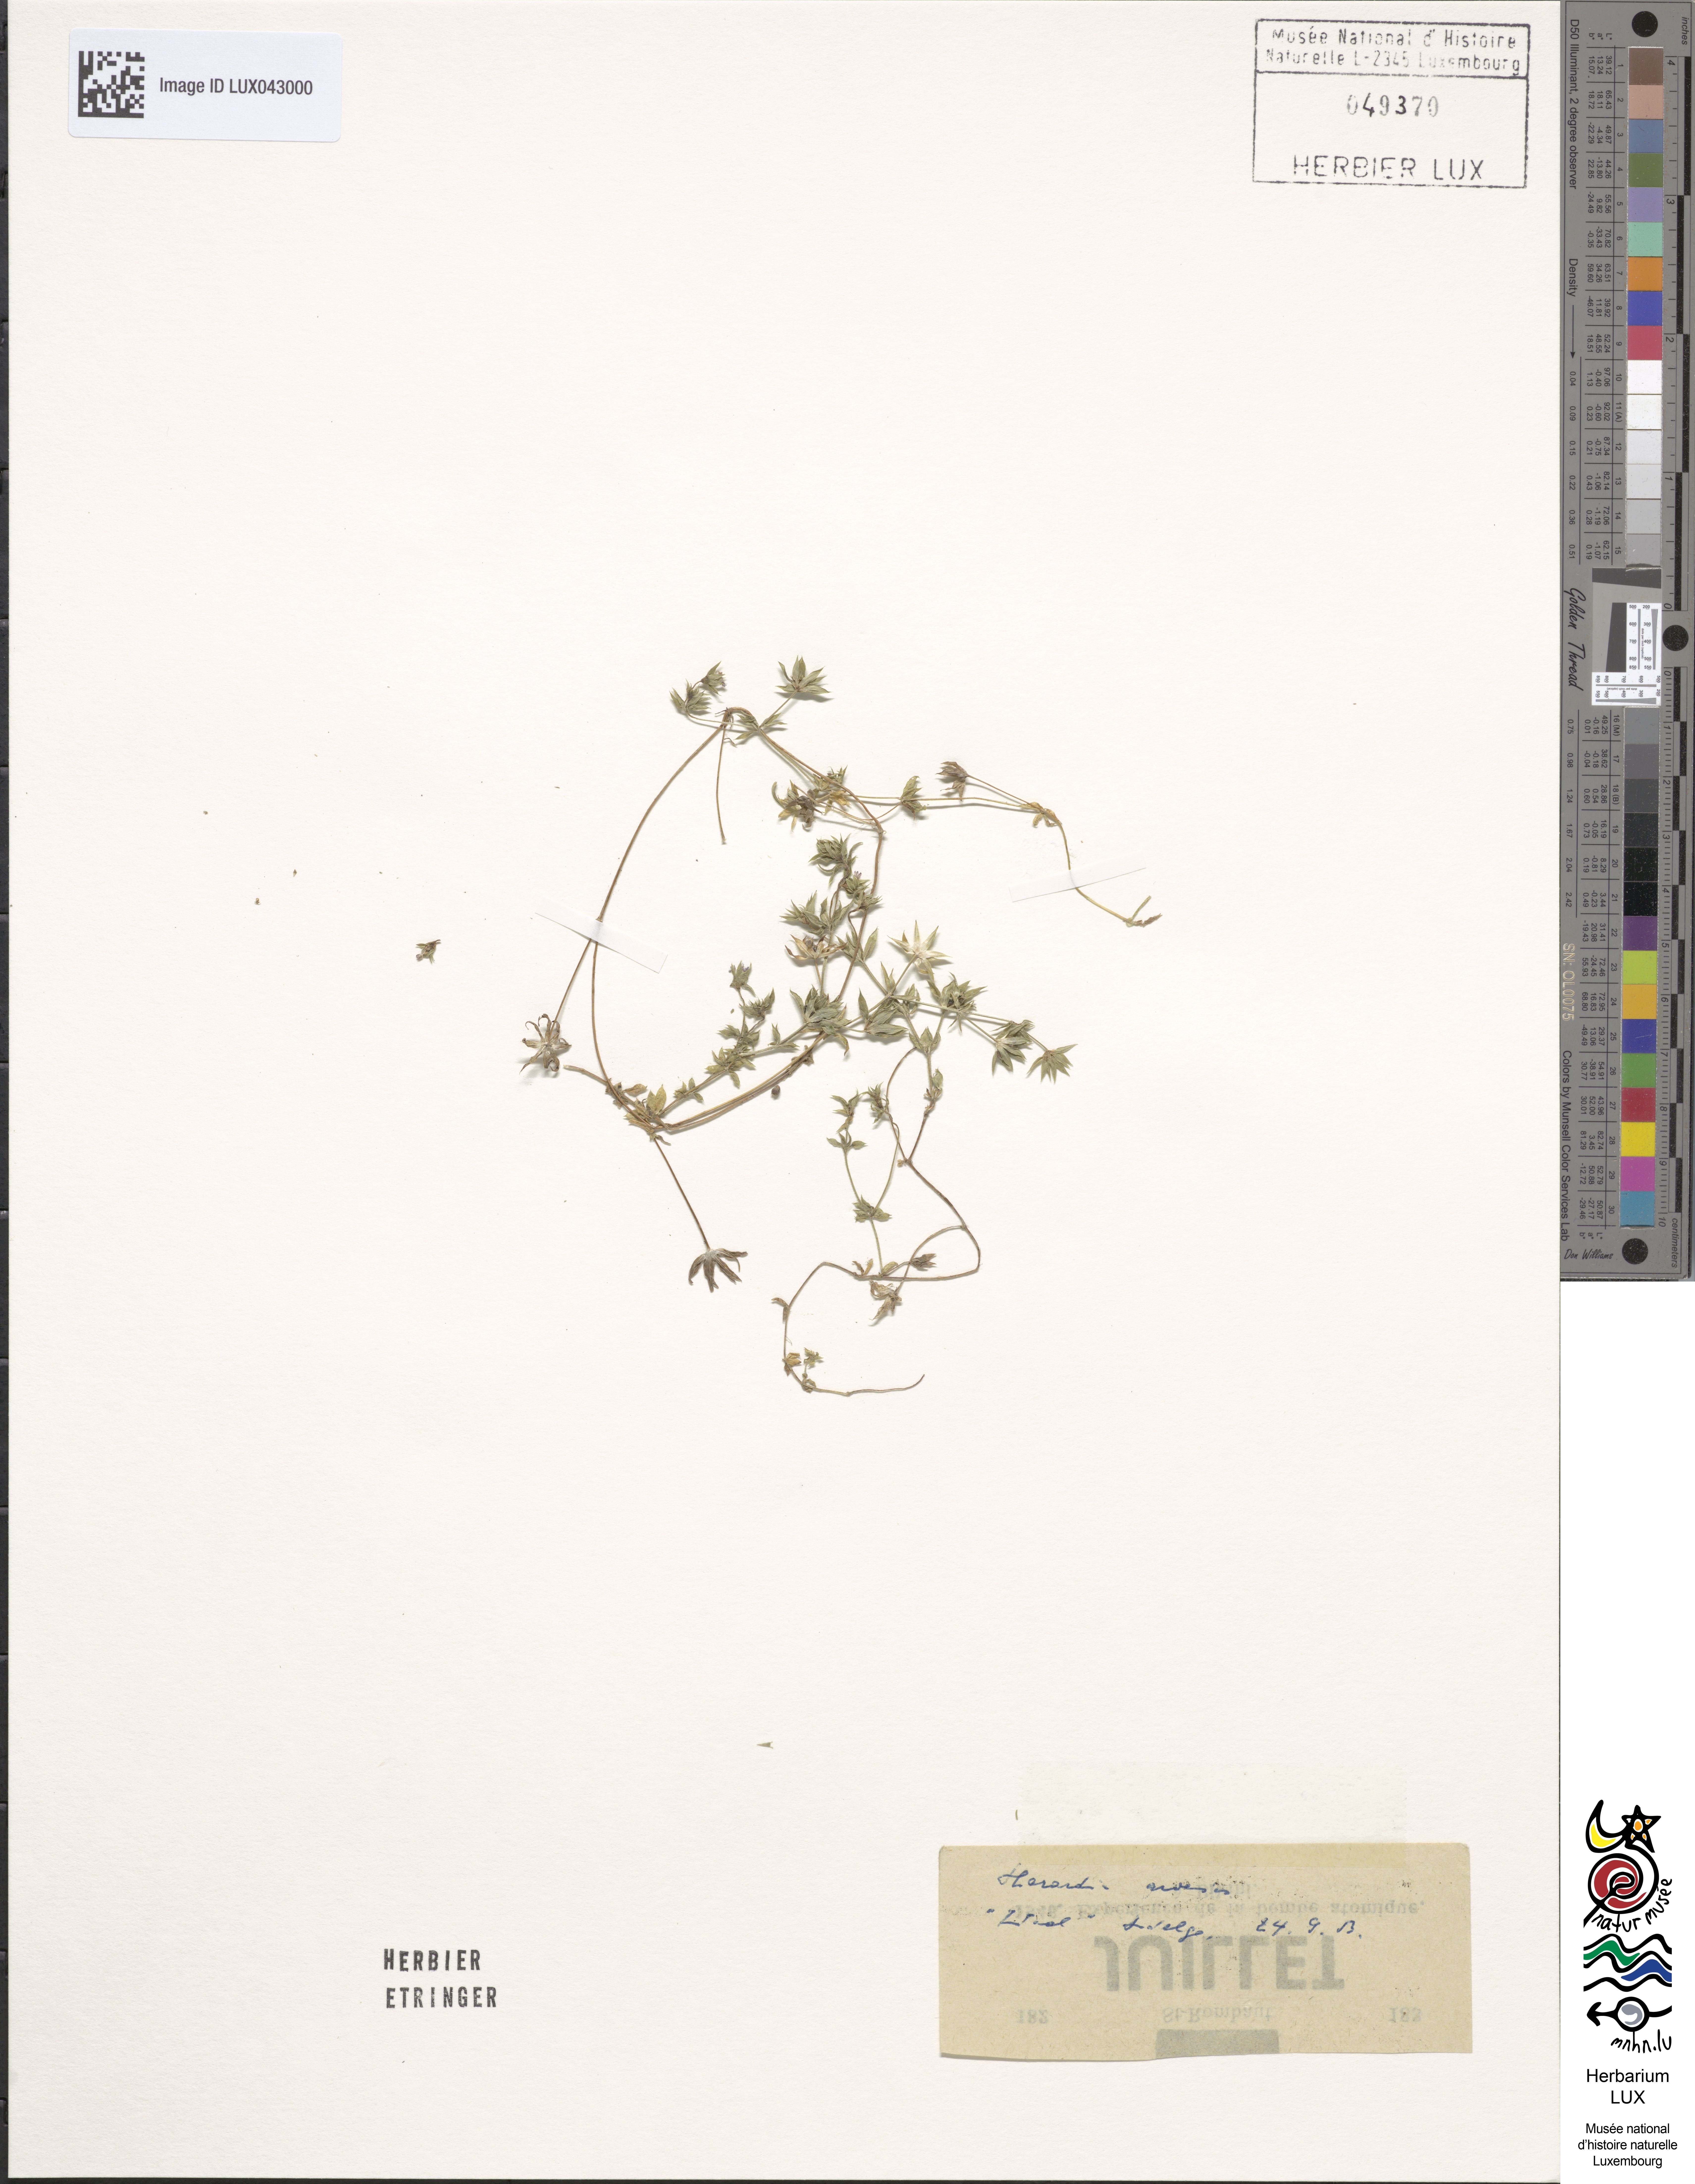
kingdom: Plantae
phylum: Tracheophyta
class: Magnoliopsida
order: Gentianales
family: Rubiaceae
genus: Sherardia
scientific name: Sherardia arvensis
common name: Field madder
